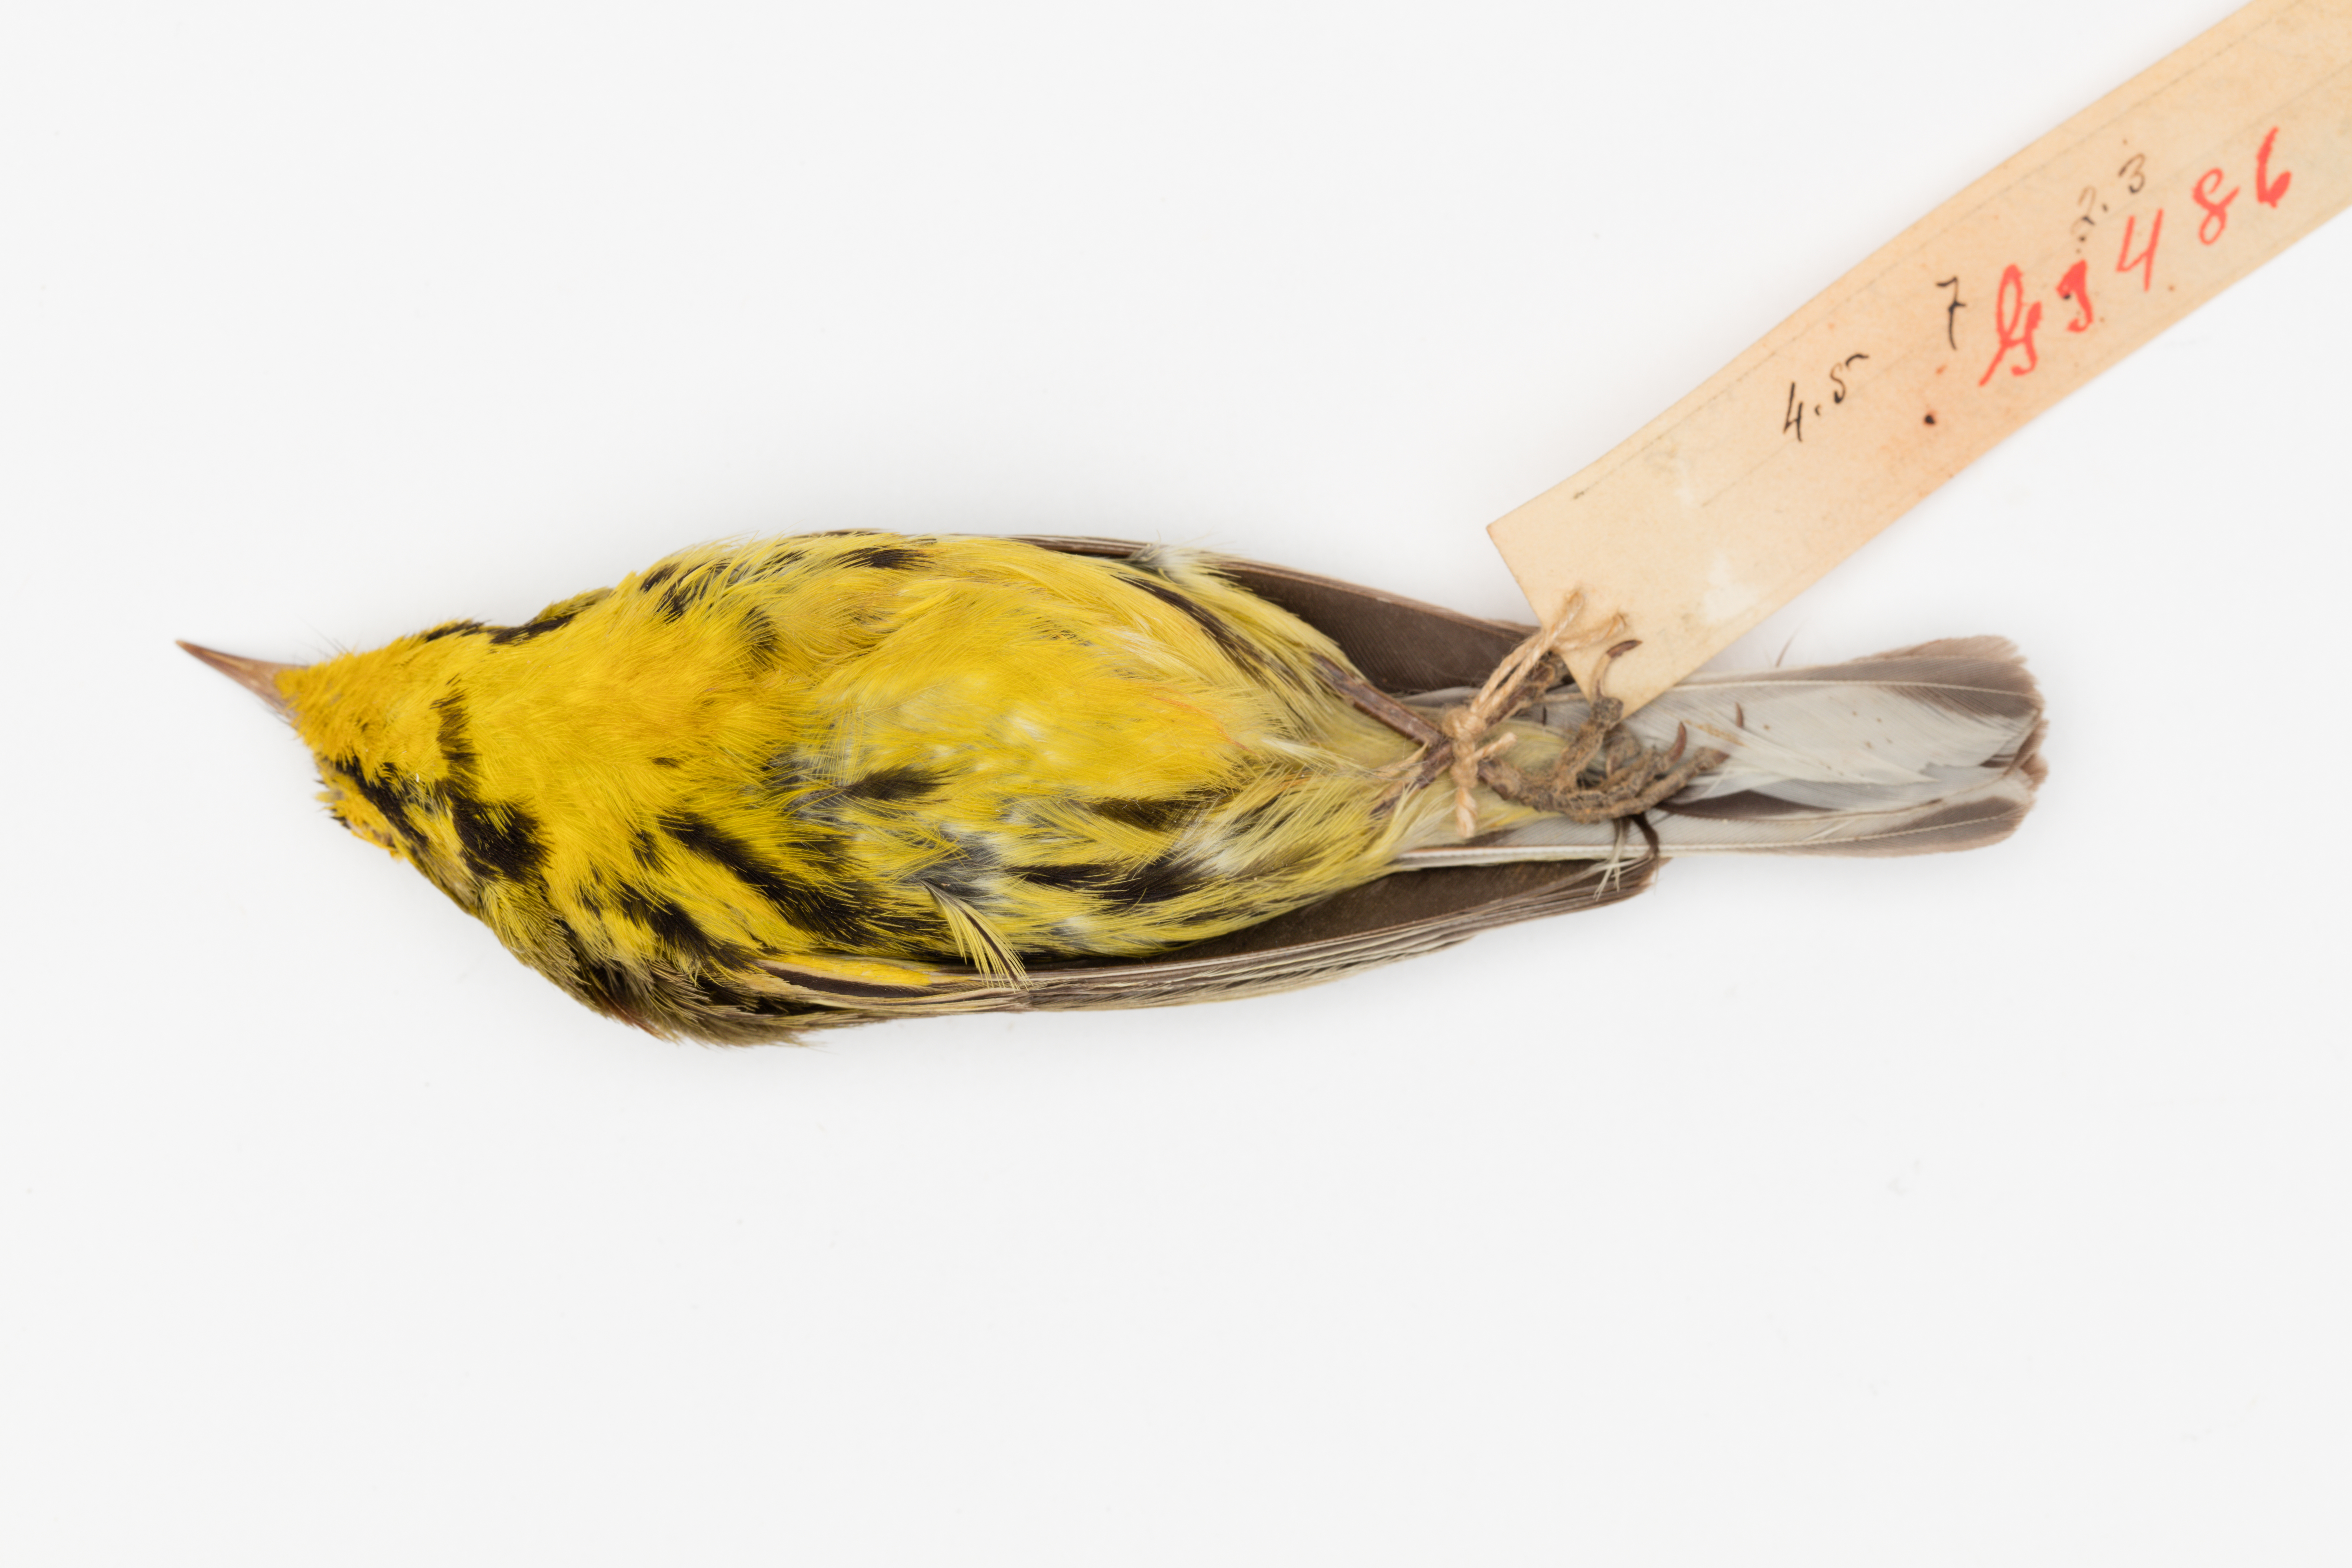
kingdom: Animalia
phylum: Chordata
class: Aves
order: Passeriformes
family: Parulidae
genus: Setophaga
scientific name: Setophaga discolor
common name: Prairie warbler
